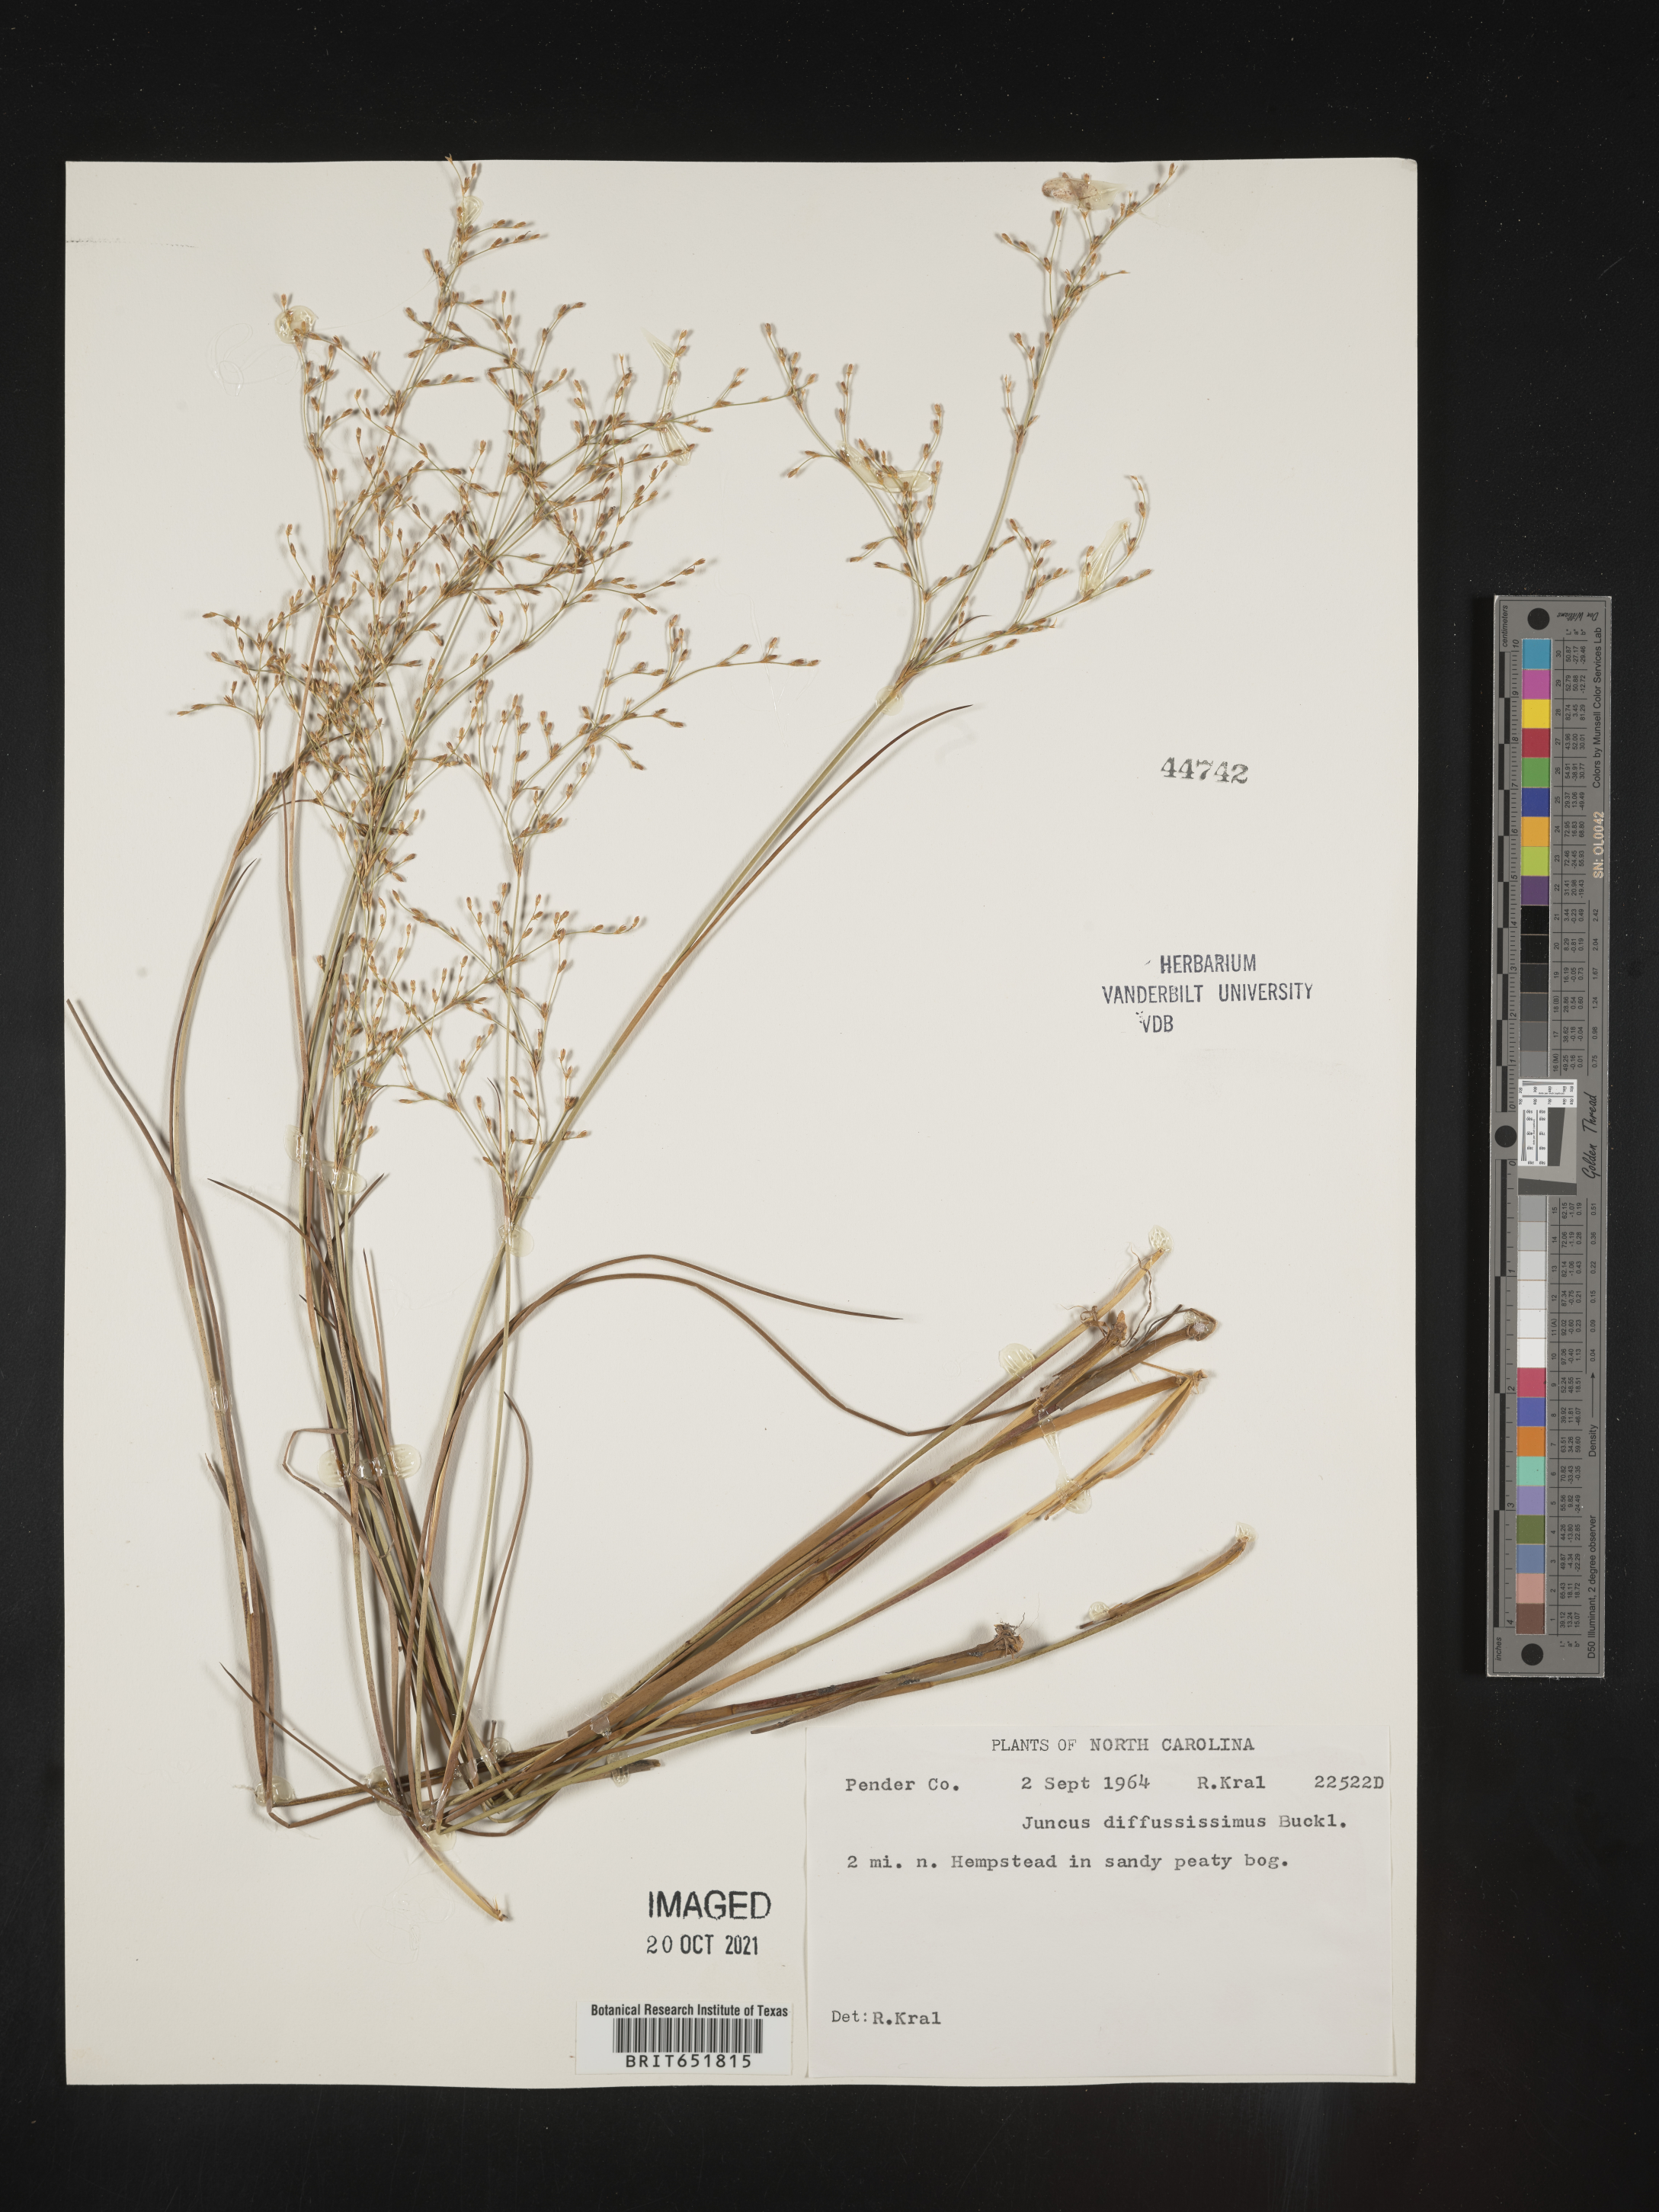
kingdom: Plantae
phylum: Tracheophyta
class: Liliopsida
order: Poales
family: Juncaceae
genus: Juncus
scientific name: Juncus diffusissimus
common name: Slimpod rush
